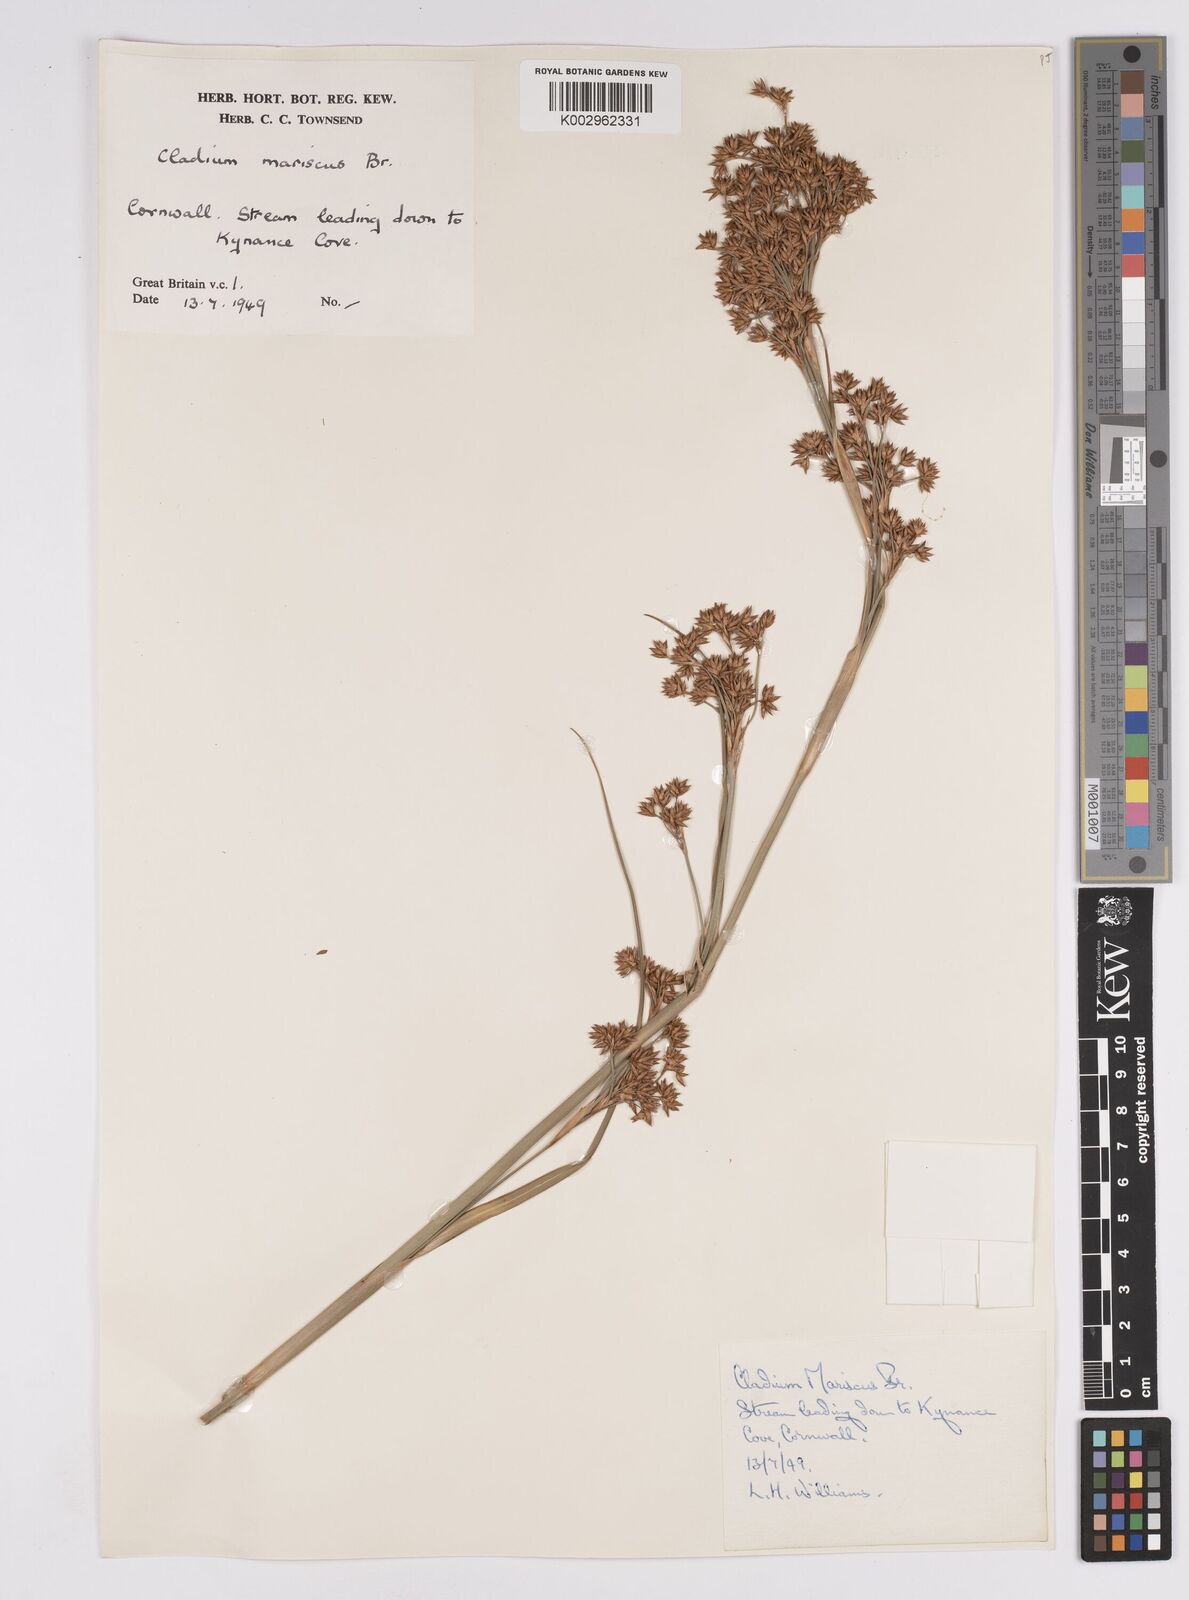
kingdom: Plantae
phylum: Tracheophyta
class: Liliopsida
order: Poales
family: Cyperaceae
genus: Cladium
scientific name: Cladium mariscus
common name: Great fen-sedge
